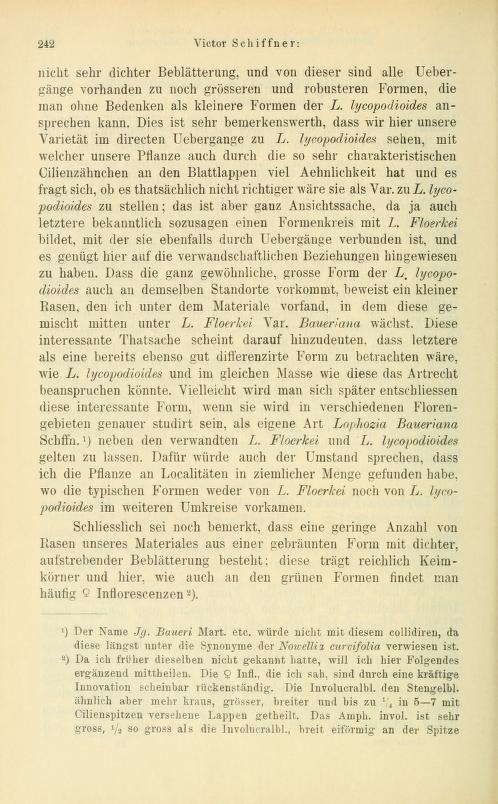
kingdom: Plantae
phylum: Marchantiophyta
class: Jungermanniopsida
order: Jungermanniales
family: Anastrophyllaceae
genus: Barbilophozia
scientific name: Barbilophozia hatcheri
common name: Hatcher s pawwort
